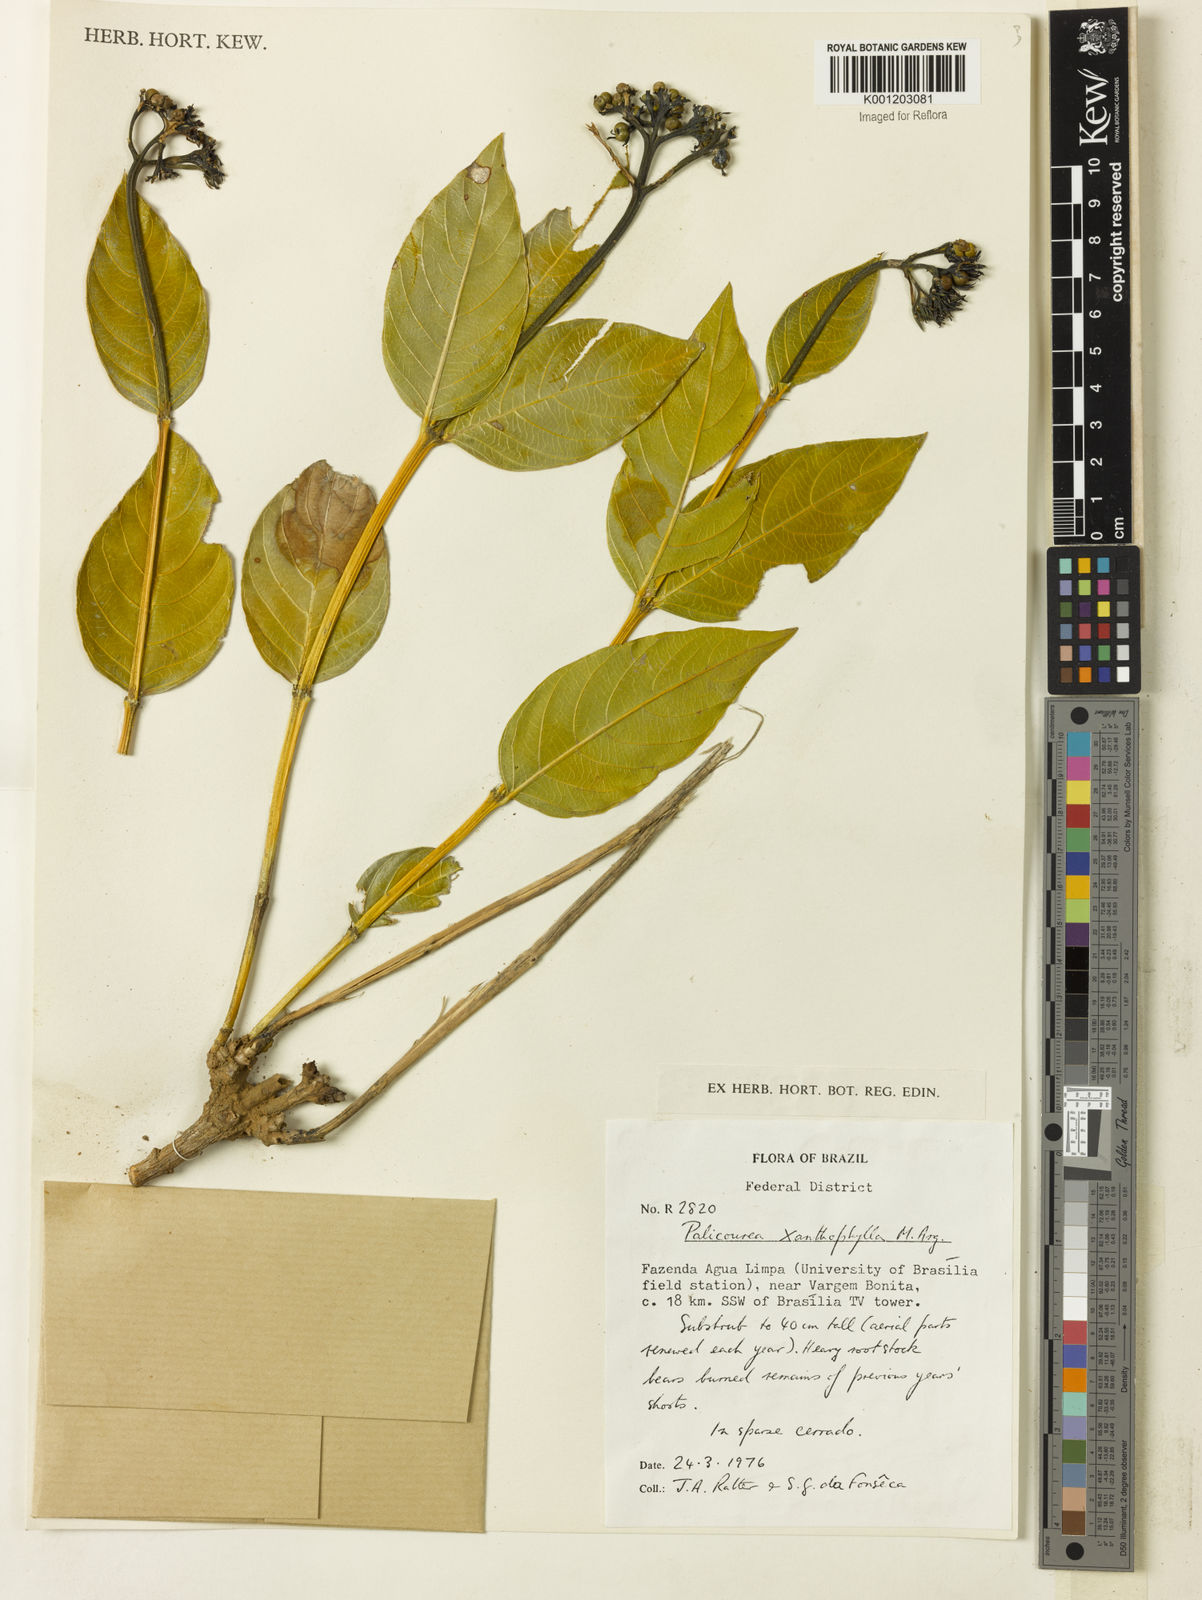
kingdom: Plantae
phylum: Tracheophyta
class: Magnoliopsida
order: Gentianales
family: Rubiaceae
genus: Palicourea
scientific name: Palicourea coriacea
